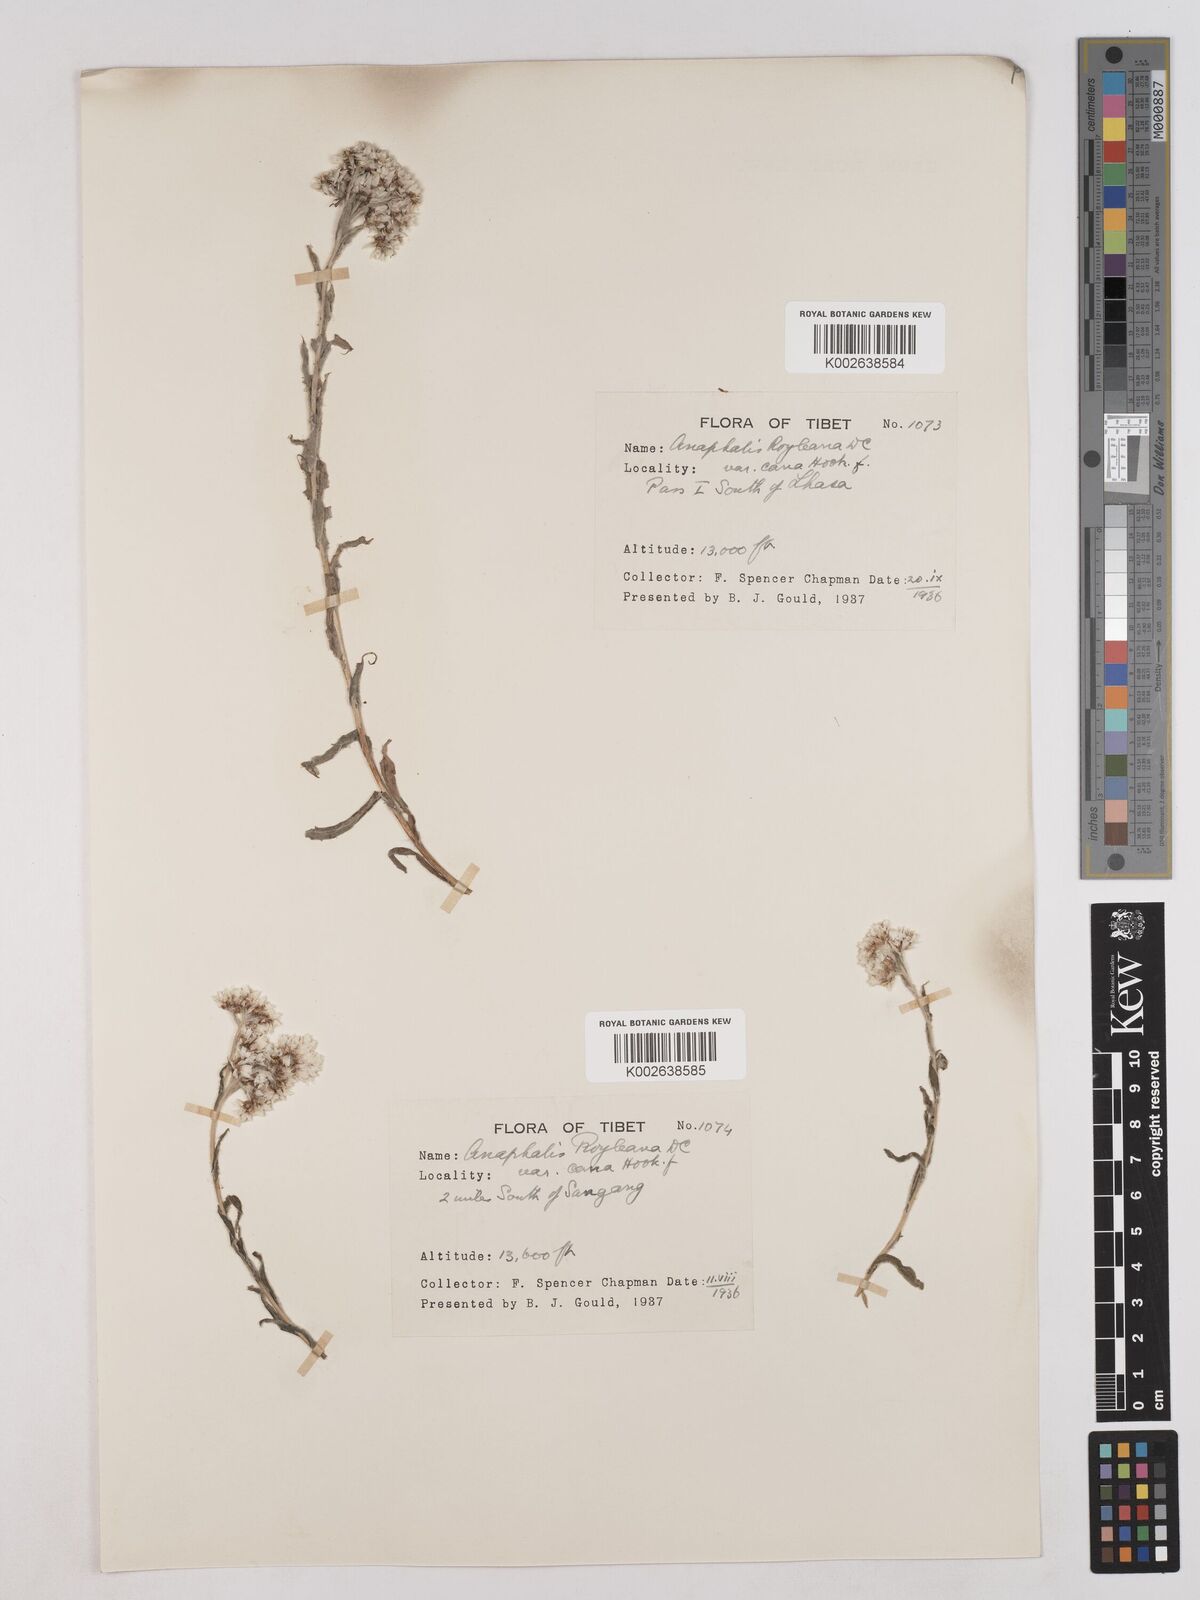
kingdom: Plantae
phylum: Tracheophyta
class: Magnoliopsida
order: Asterales
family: Asteraceae
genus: Anaphalis
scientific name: Anaphalis royleana
